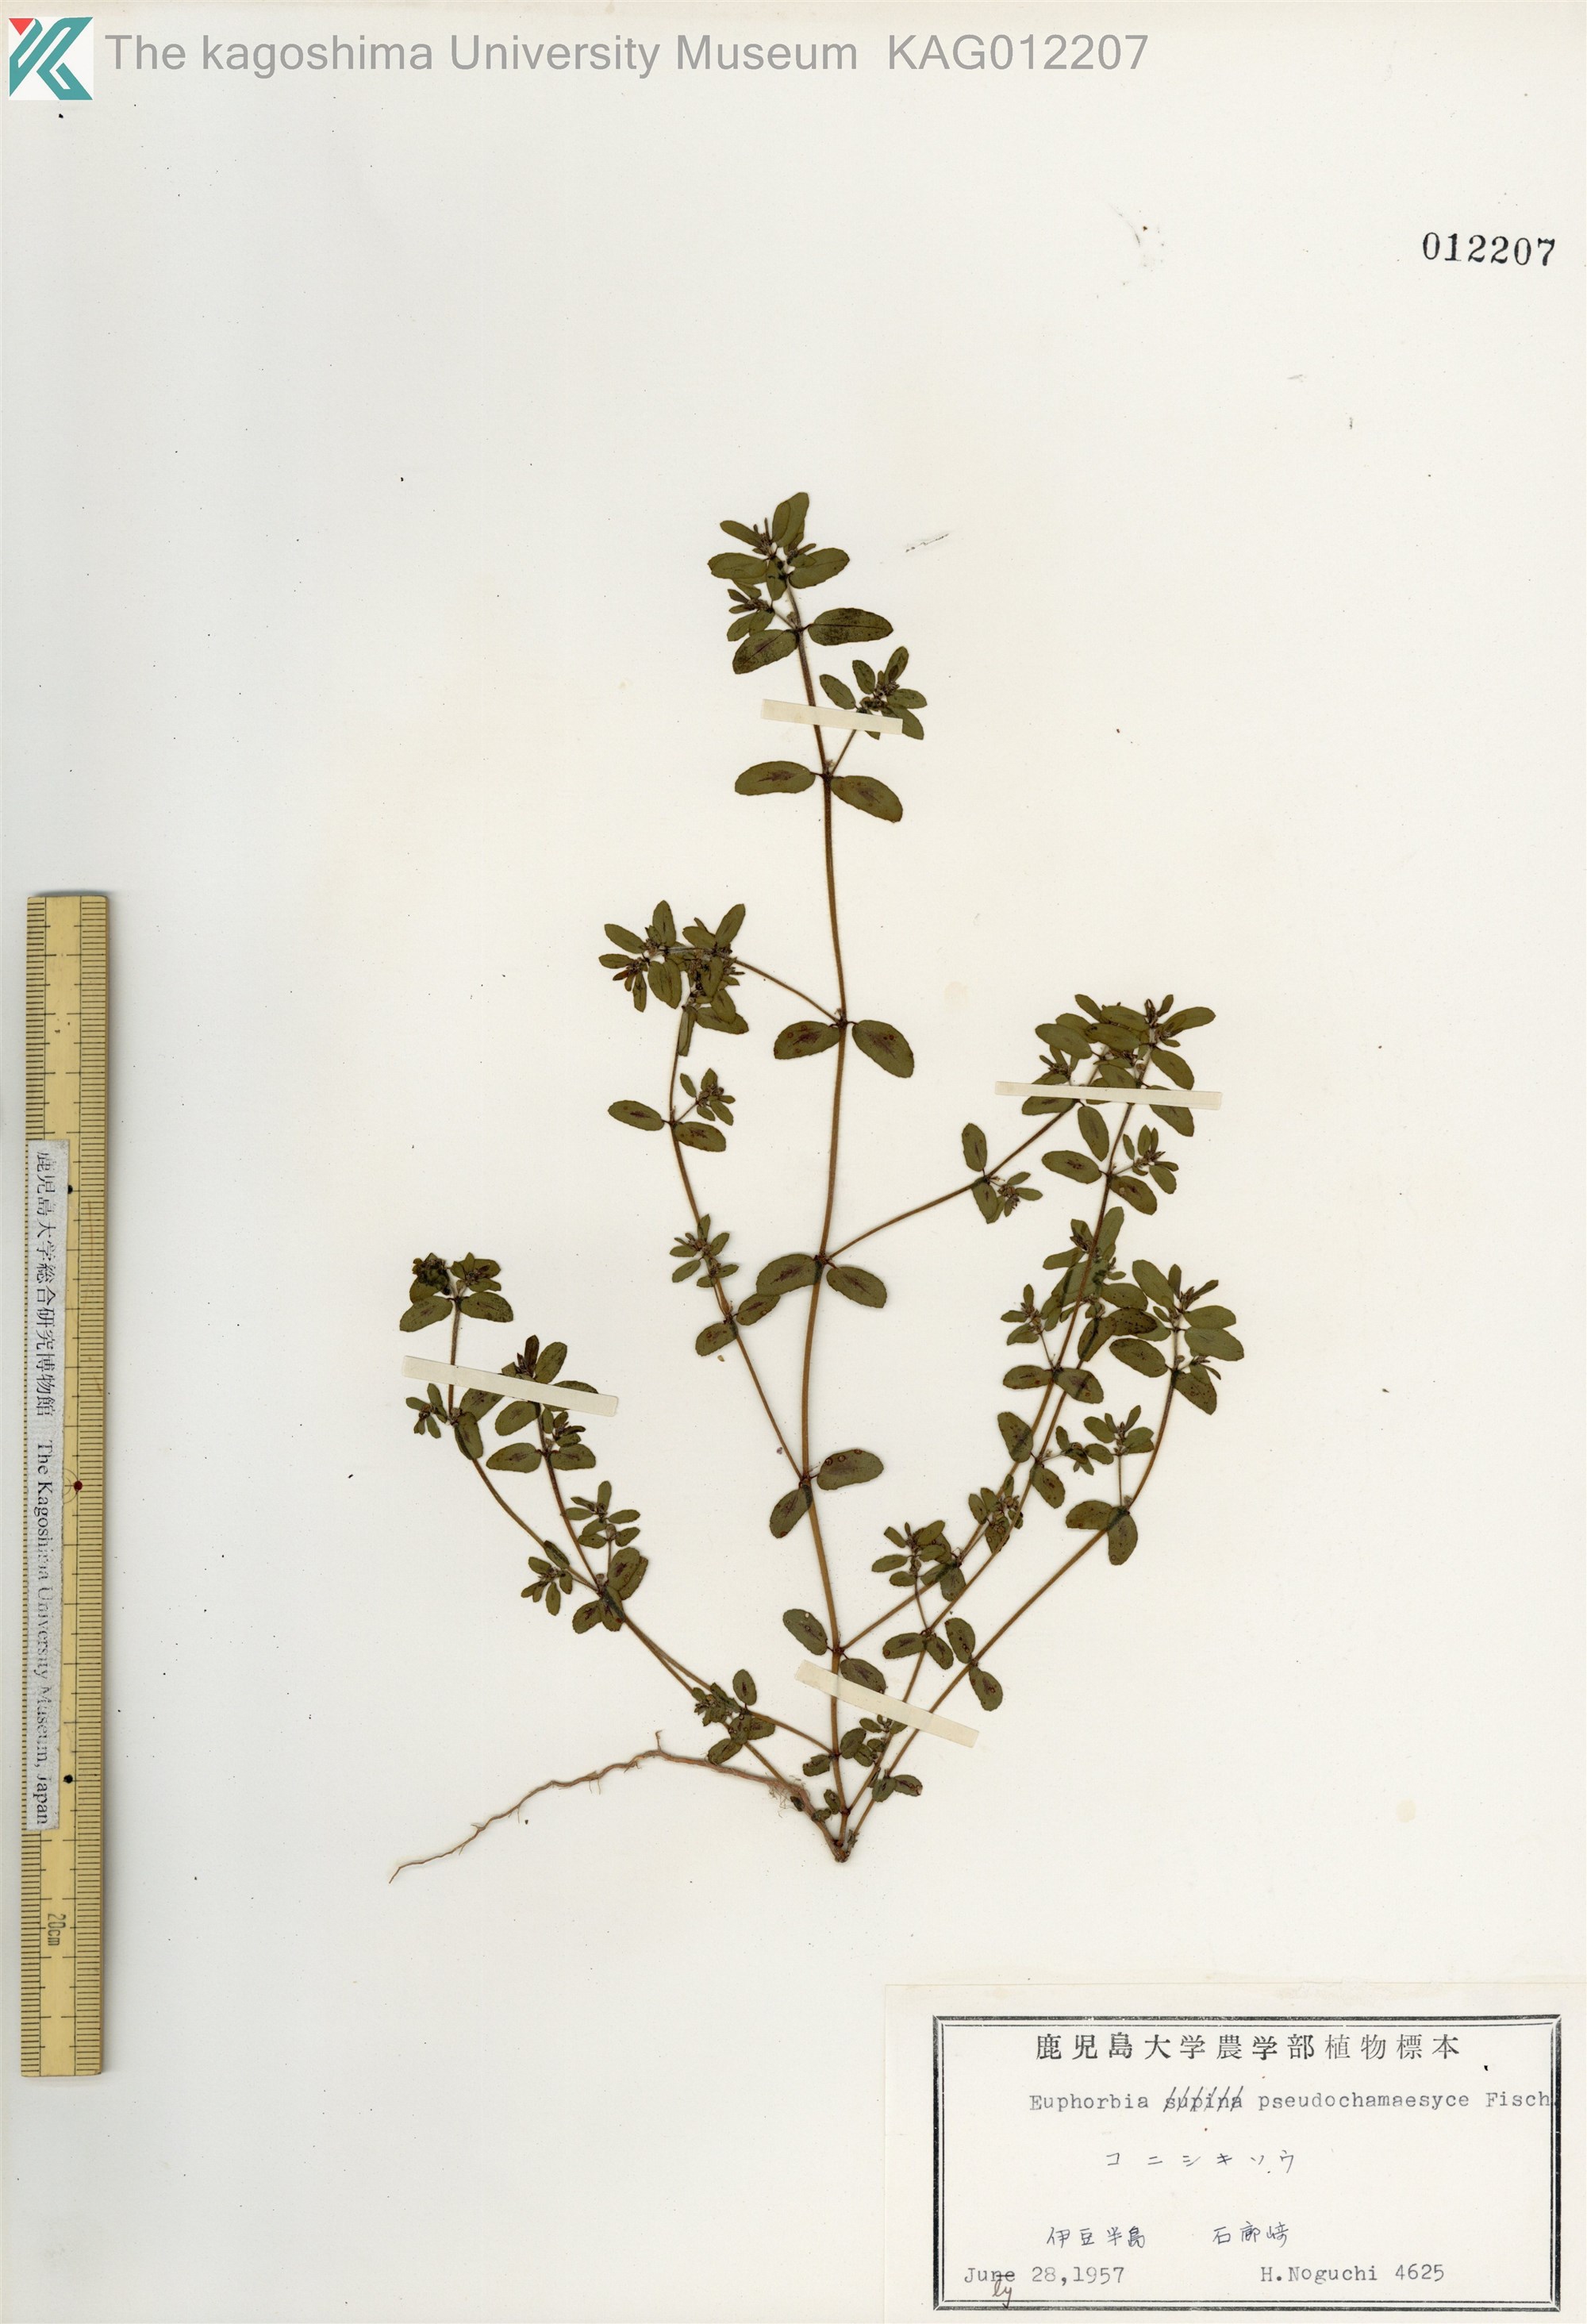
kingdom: Plantae
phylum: Tracheophyta
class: Magnoliopsida
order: Malpighiales
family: Euphorbiaceae
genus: Euphorbia
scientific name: Euphorbia maculata
